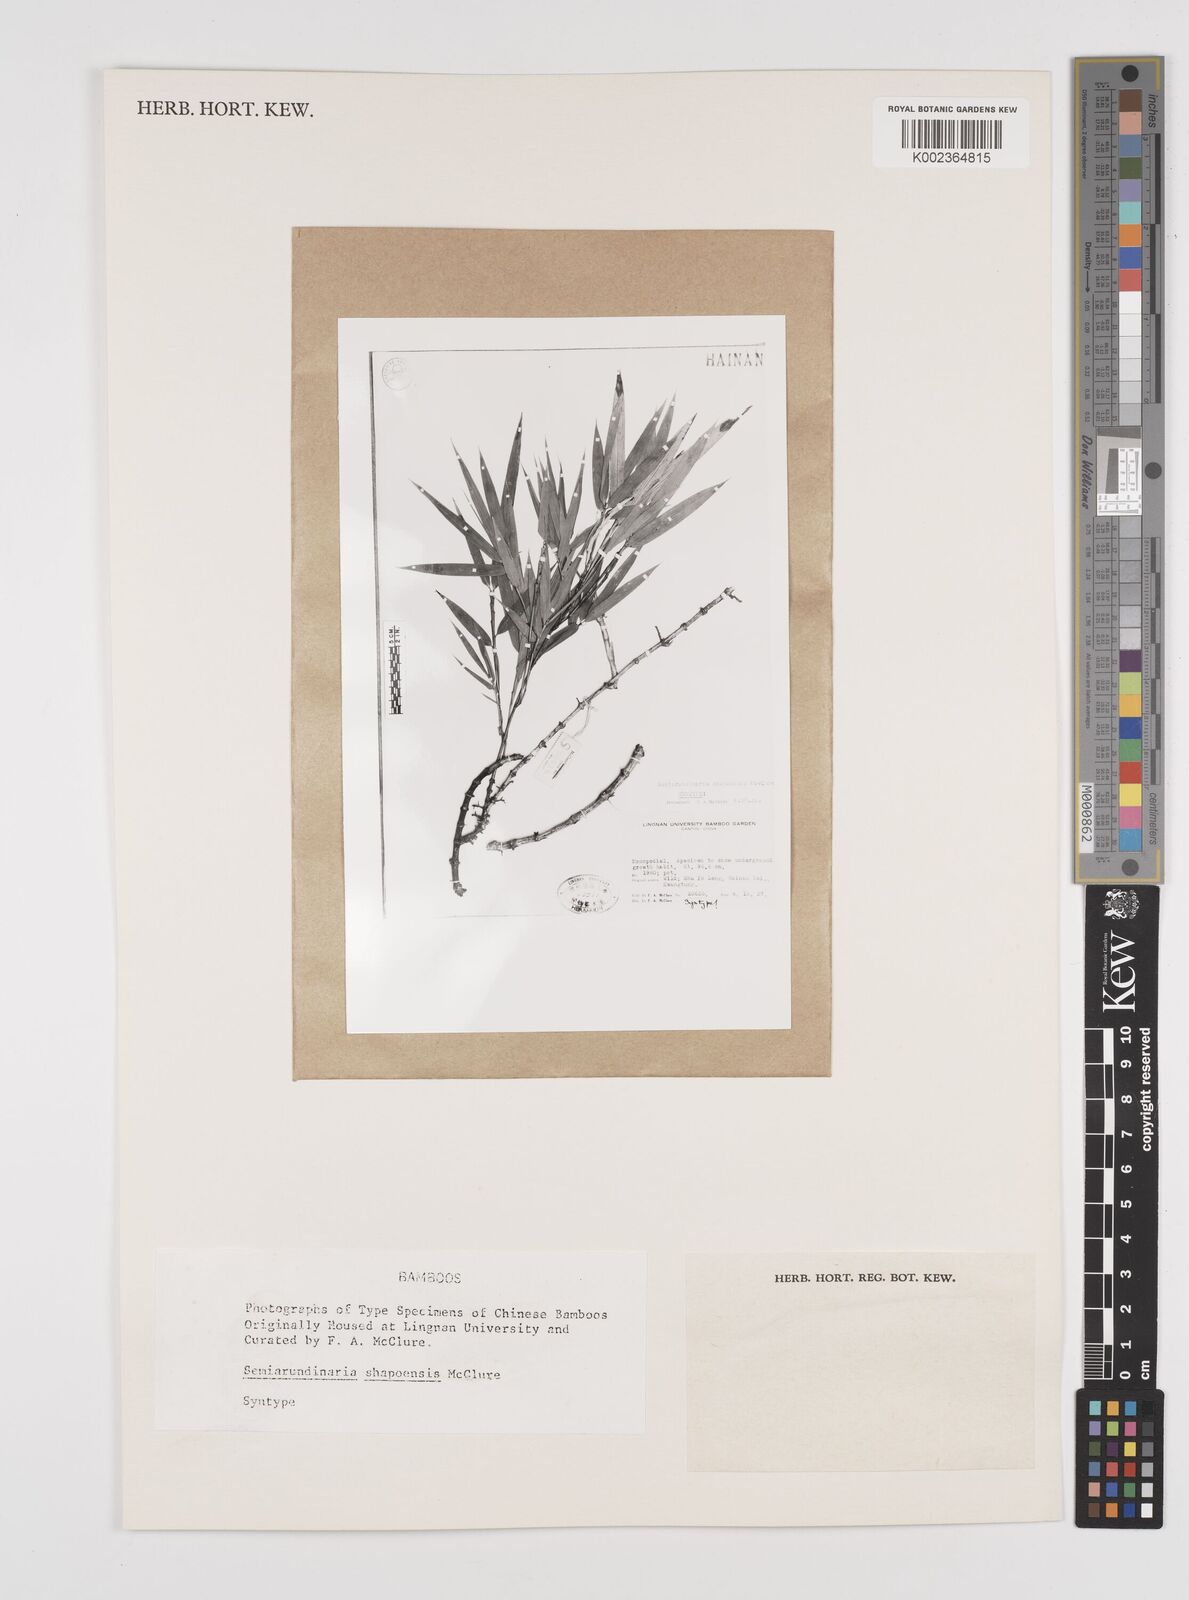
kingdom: Plantae
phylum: Tracheophyta
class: Liliopsida
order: Poales
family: Poaceae
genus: Semiarundinaria
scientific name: Semiarundinaria fastuosa
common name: Narihira bamboo
